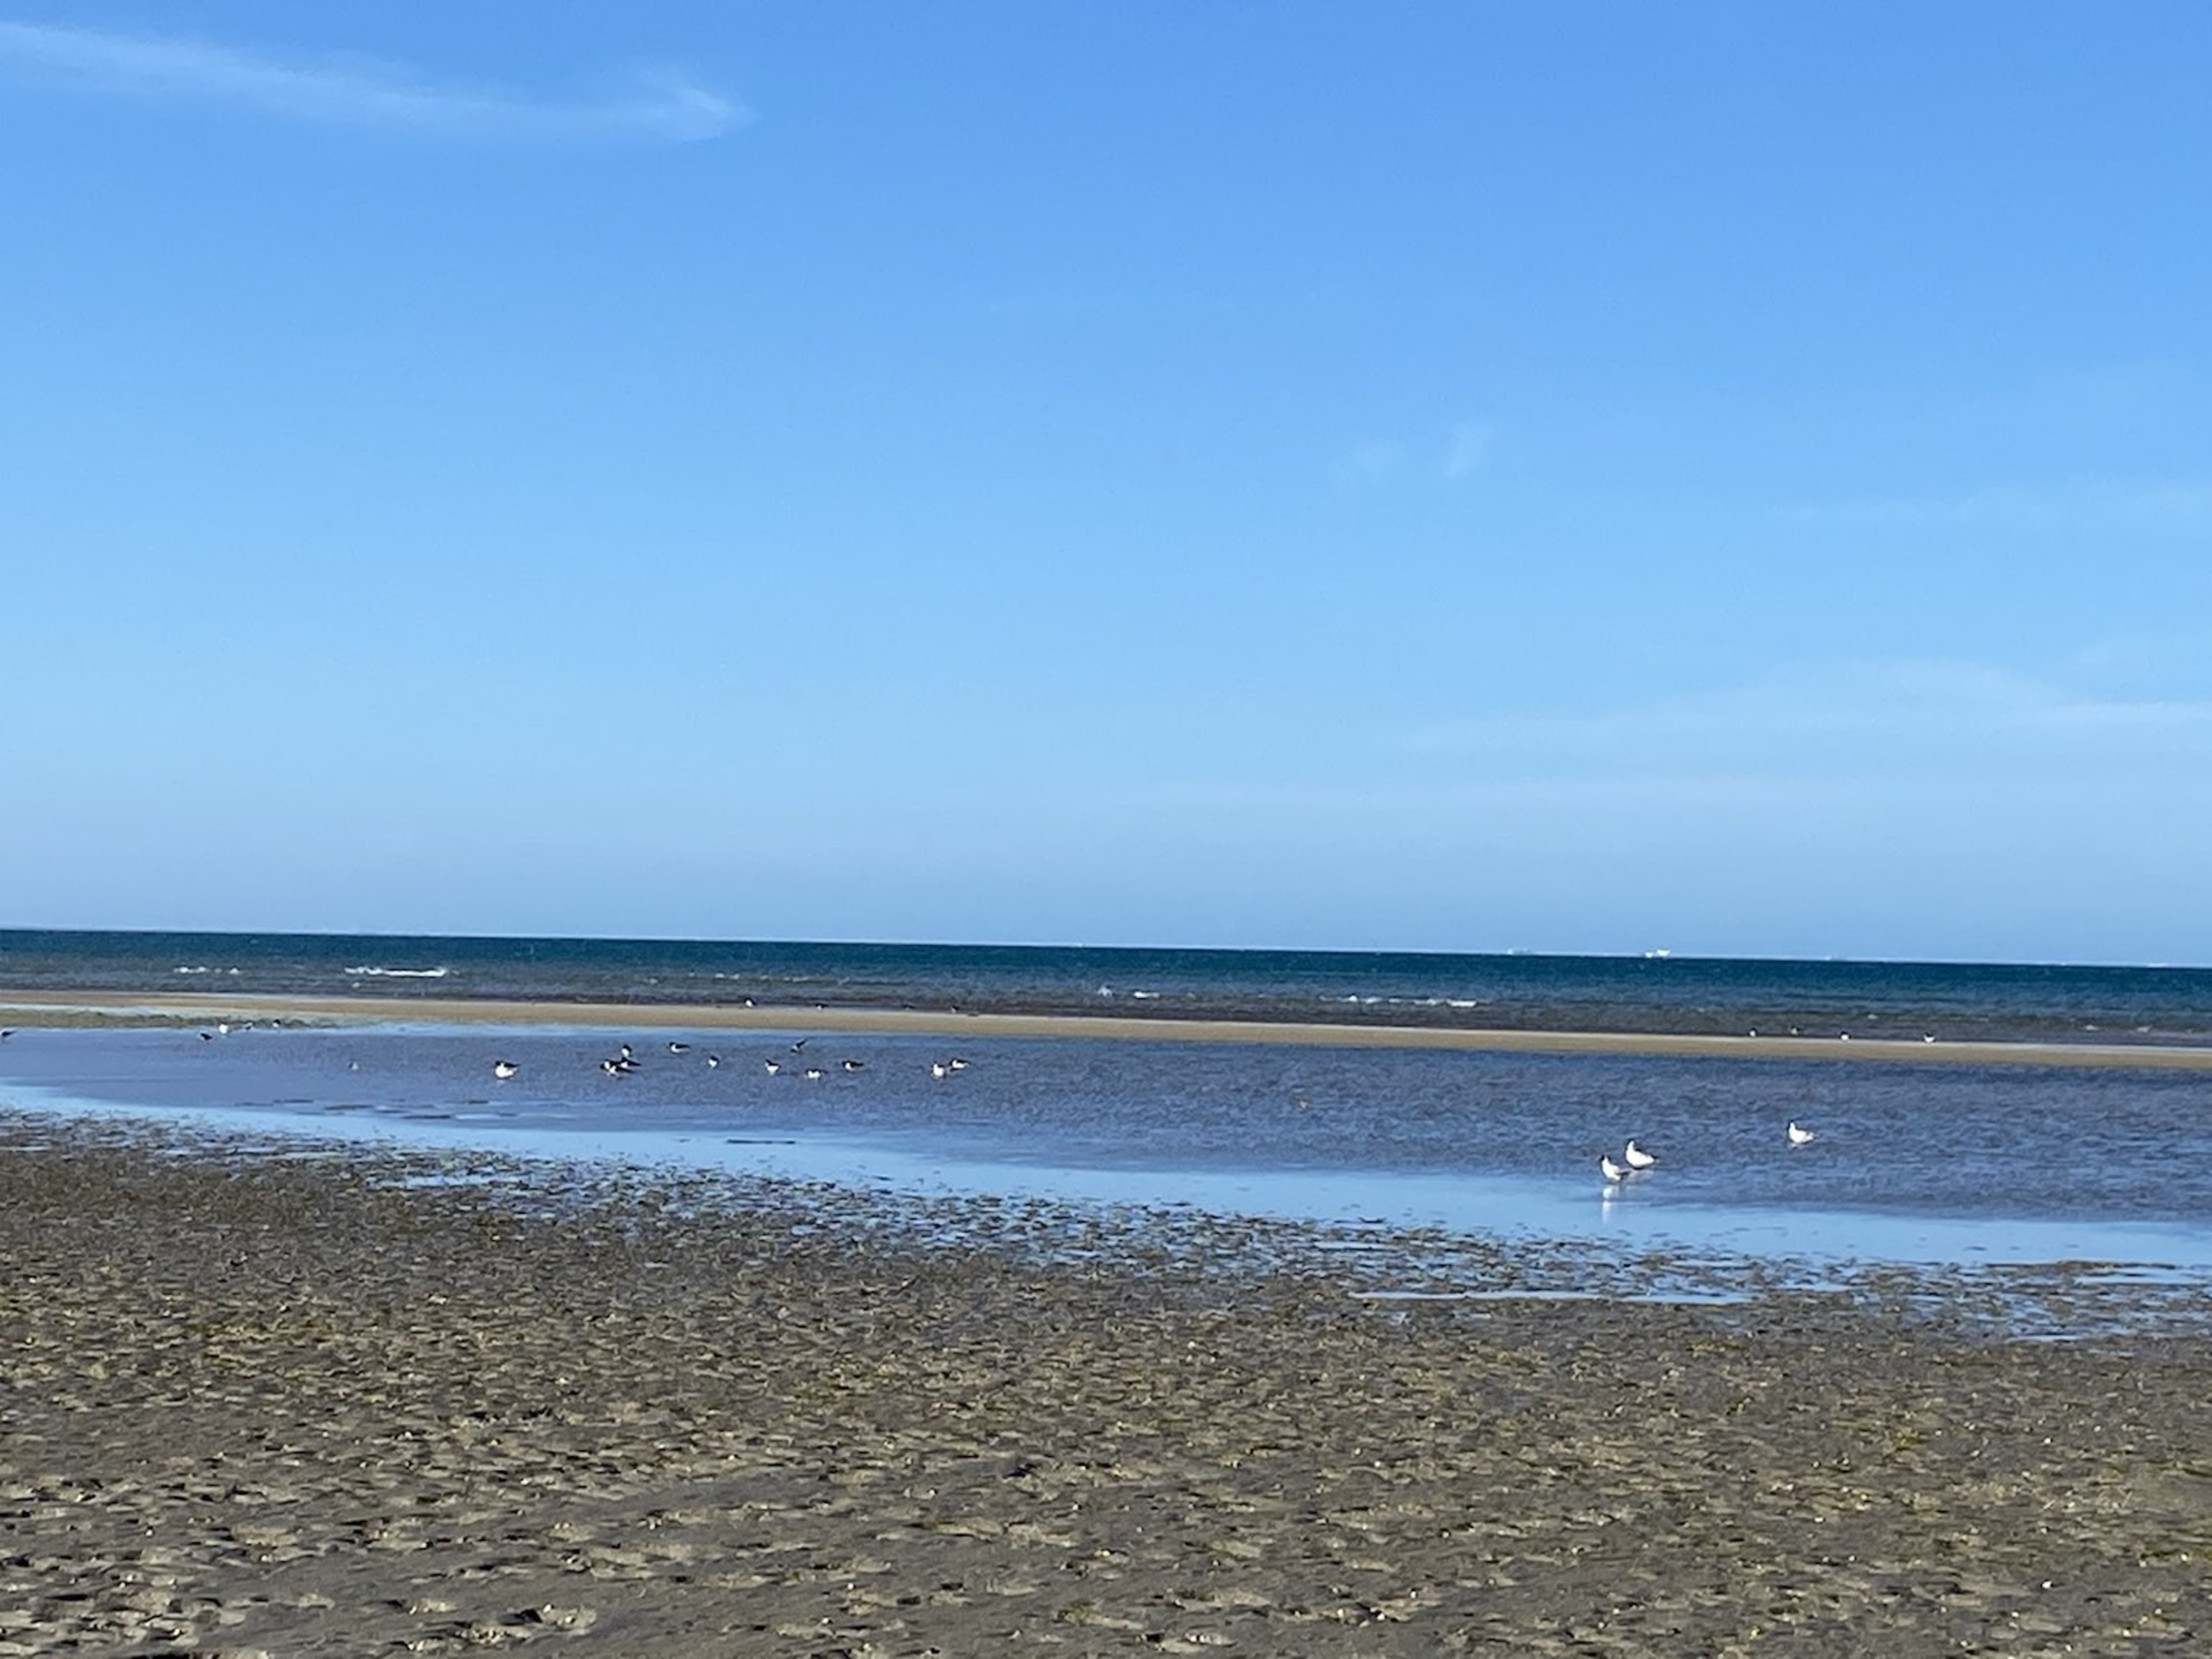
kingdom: Animalia
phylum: Chordata
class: Aves
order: Charadriiformes
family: Haematopodidae
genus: Haematopus
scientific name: Haematopus ostralegus
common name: Strandskade
